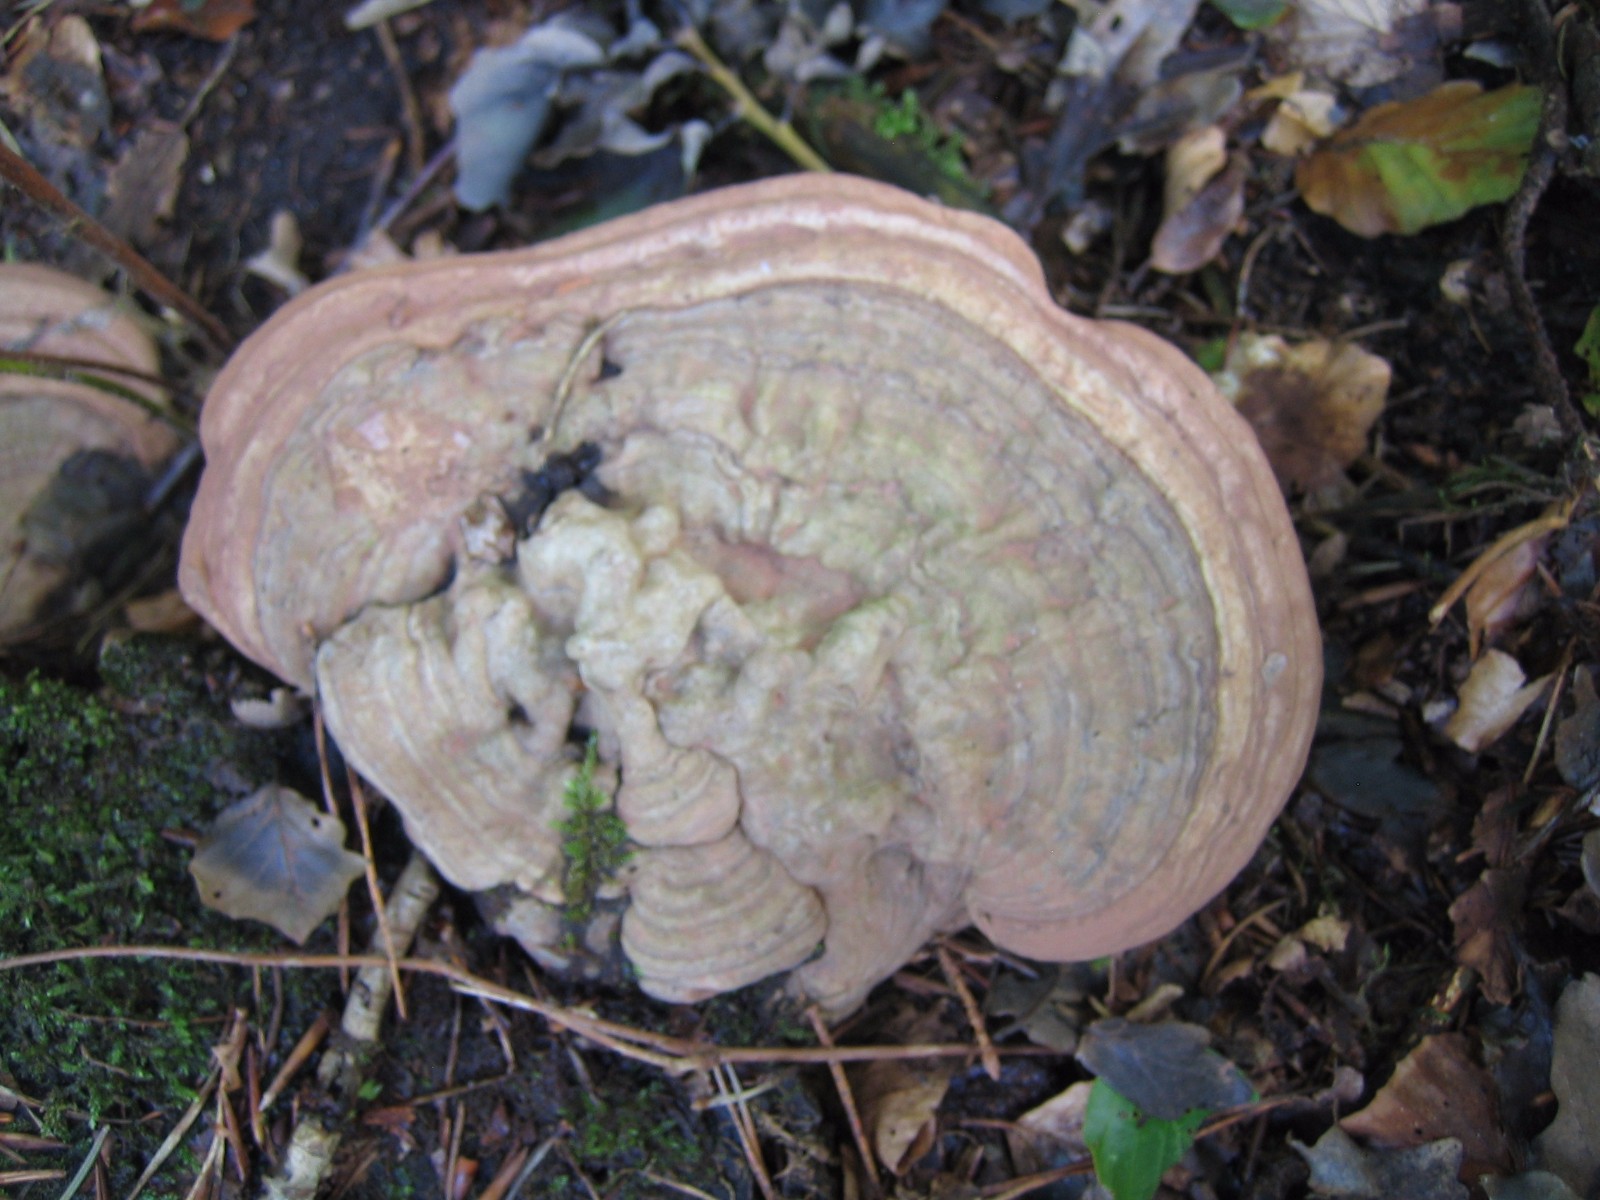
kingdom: Fungi
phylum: Basidiomycota
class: Agaricomycetes
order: Polyporales
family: Polyporaceae
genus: Ganoderma
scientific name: Ganoderma applanatum
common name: flad lakporesvamp
